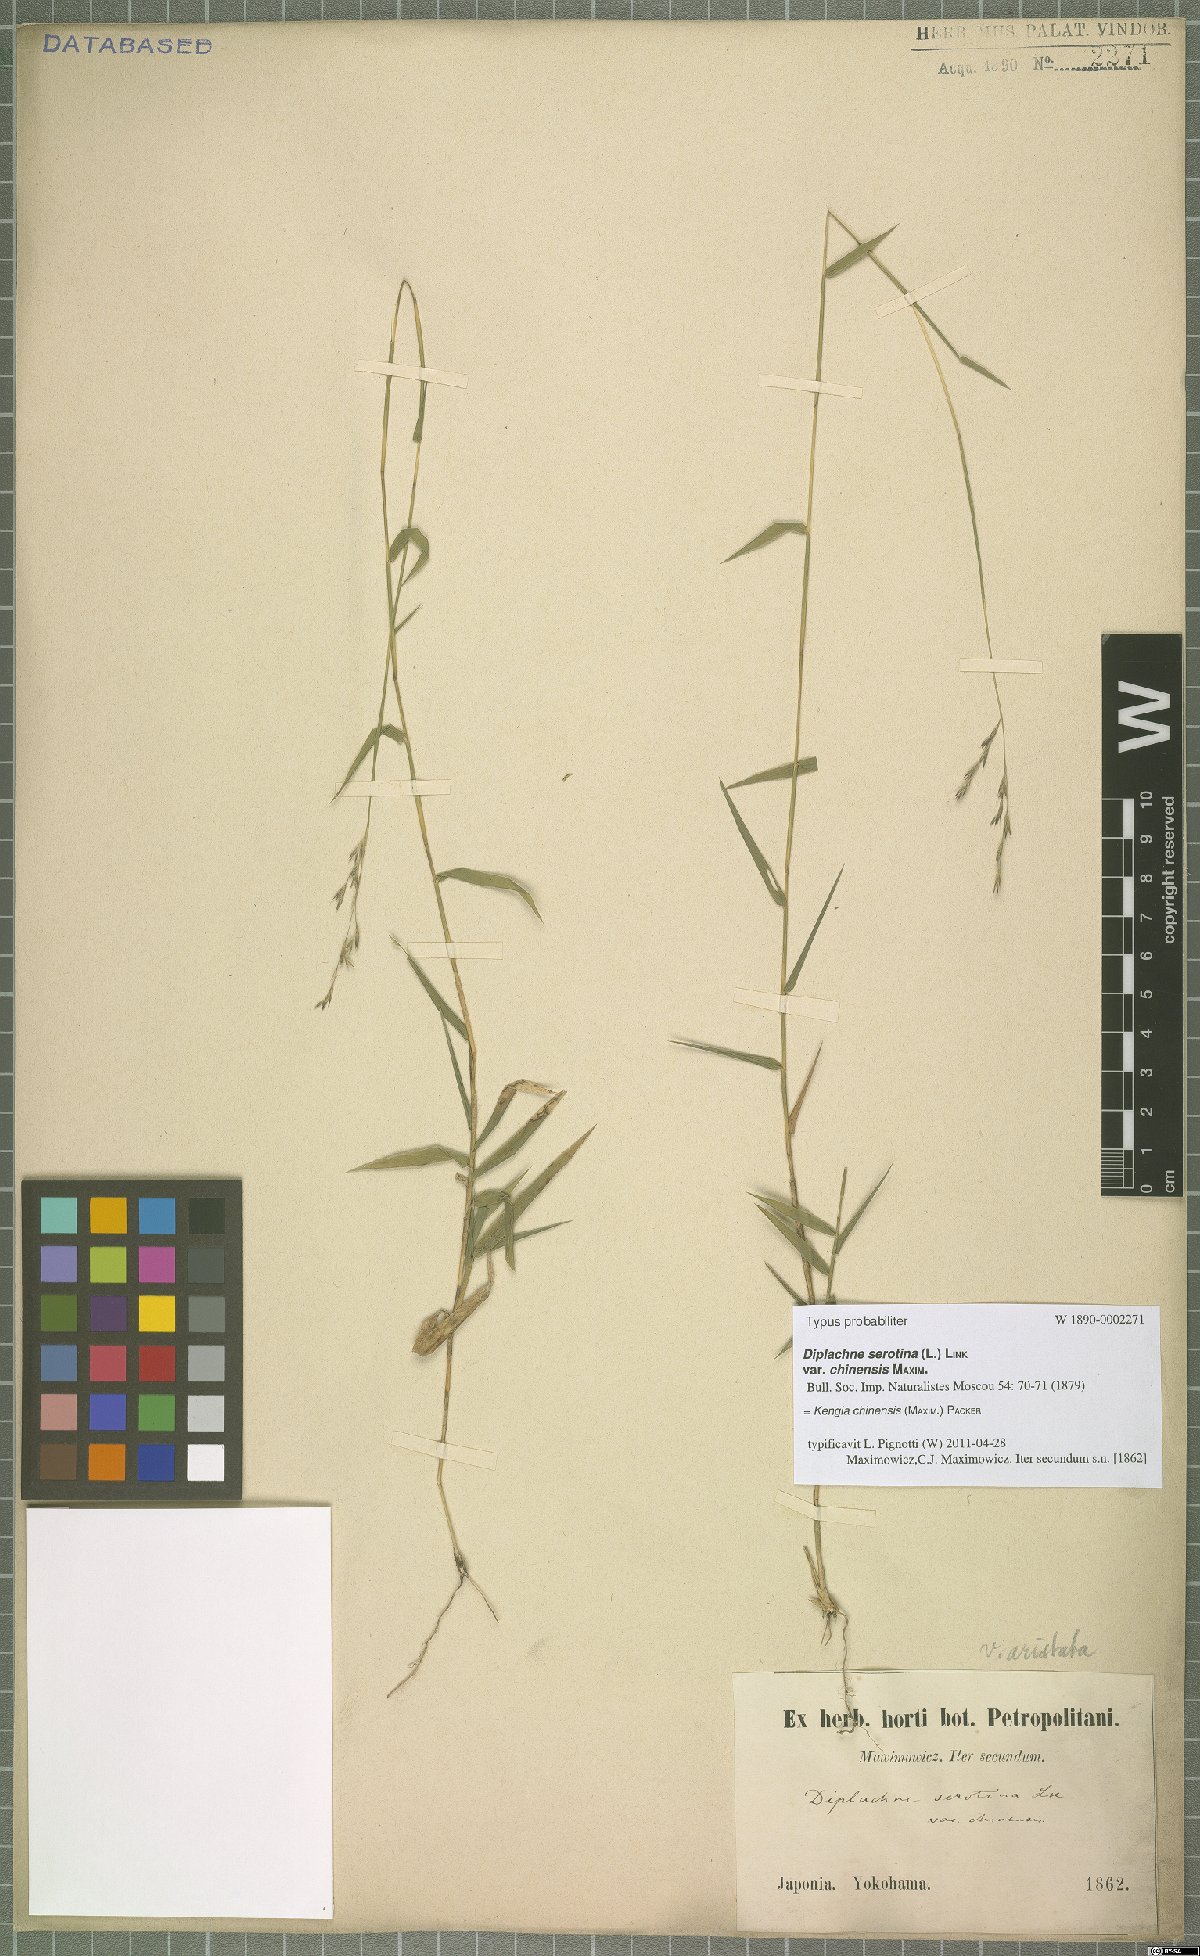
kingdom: Plantae
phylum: Tracheophyta
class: Liliopsida
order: Poales
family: Poaceae
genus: Cleistogenes
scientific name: Cleistogenes hackelii
